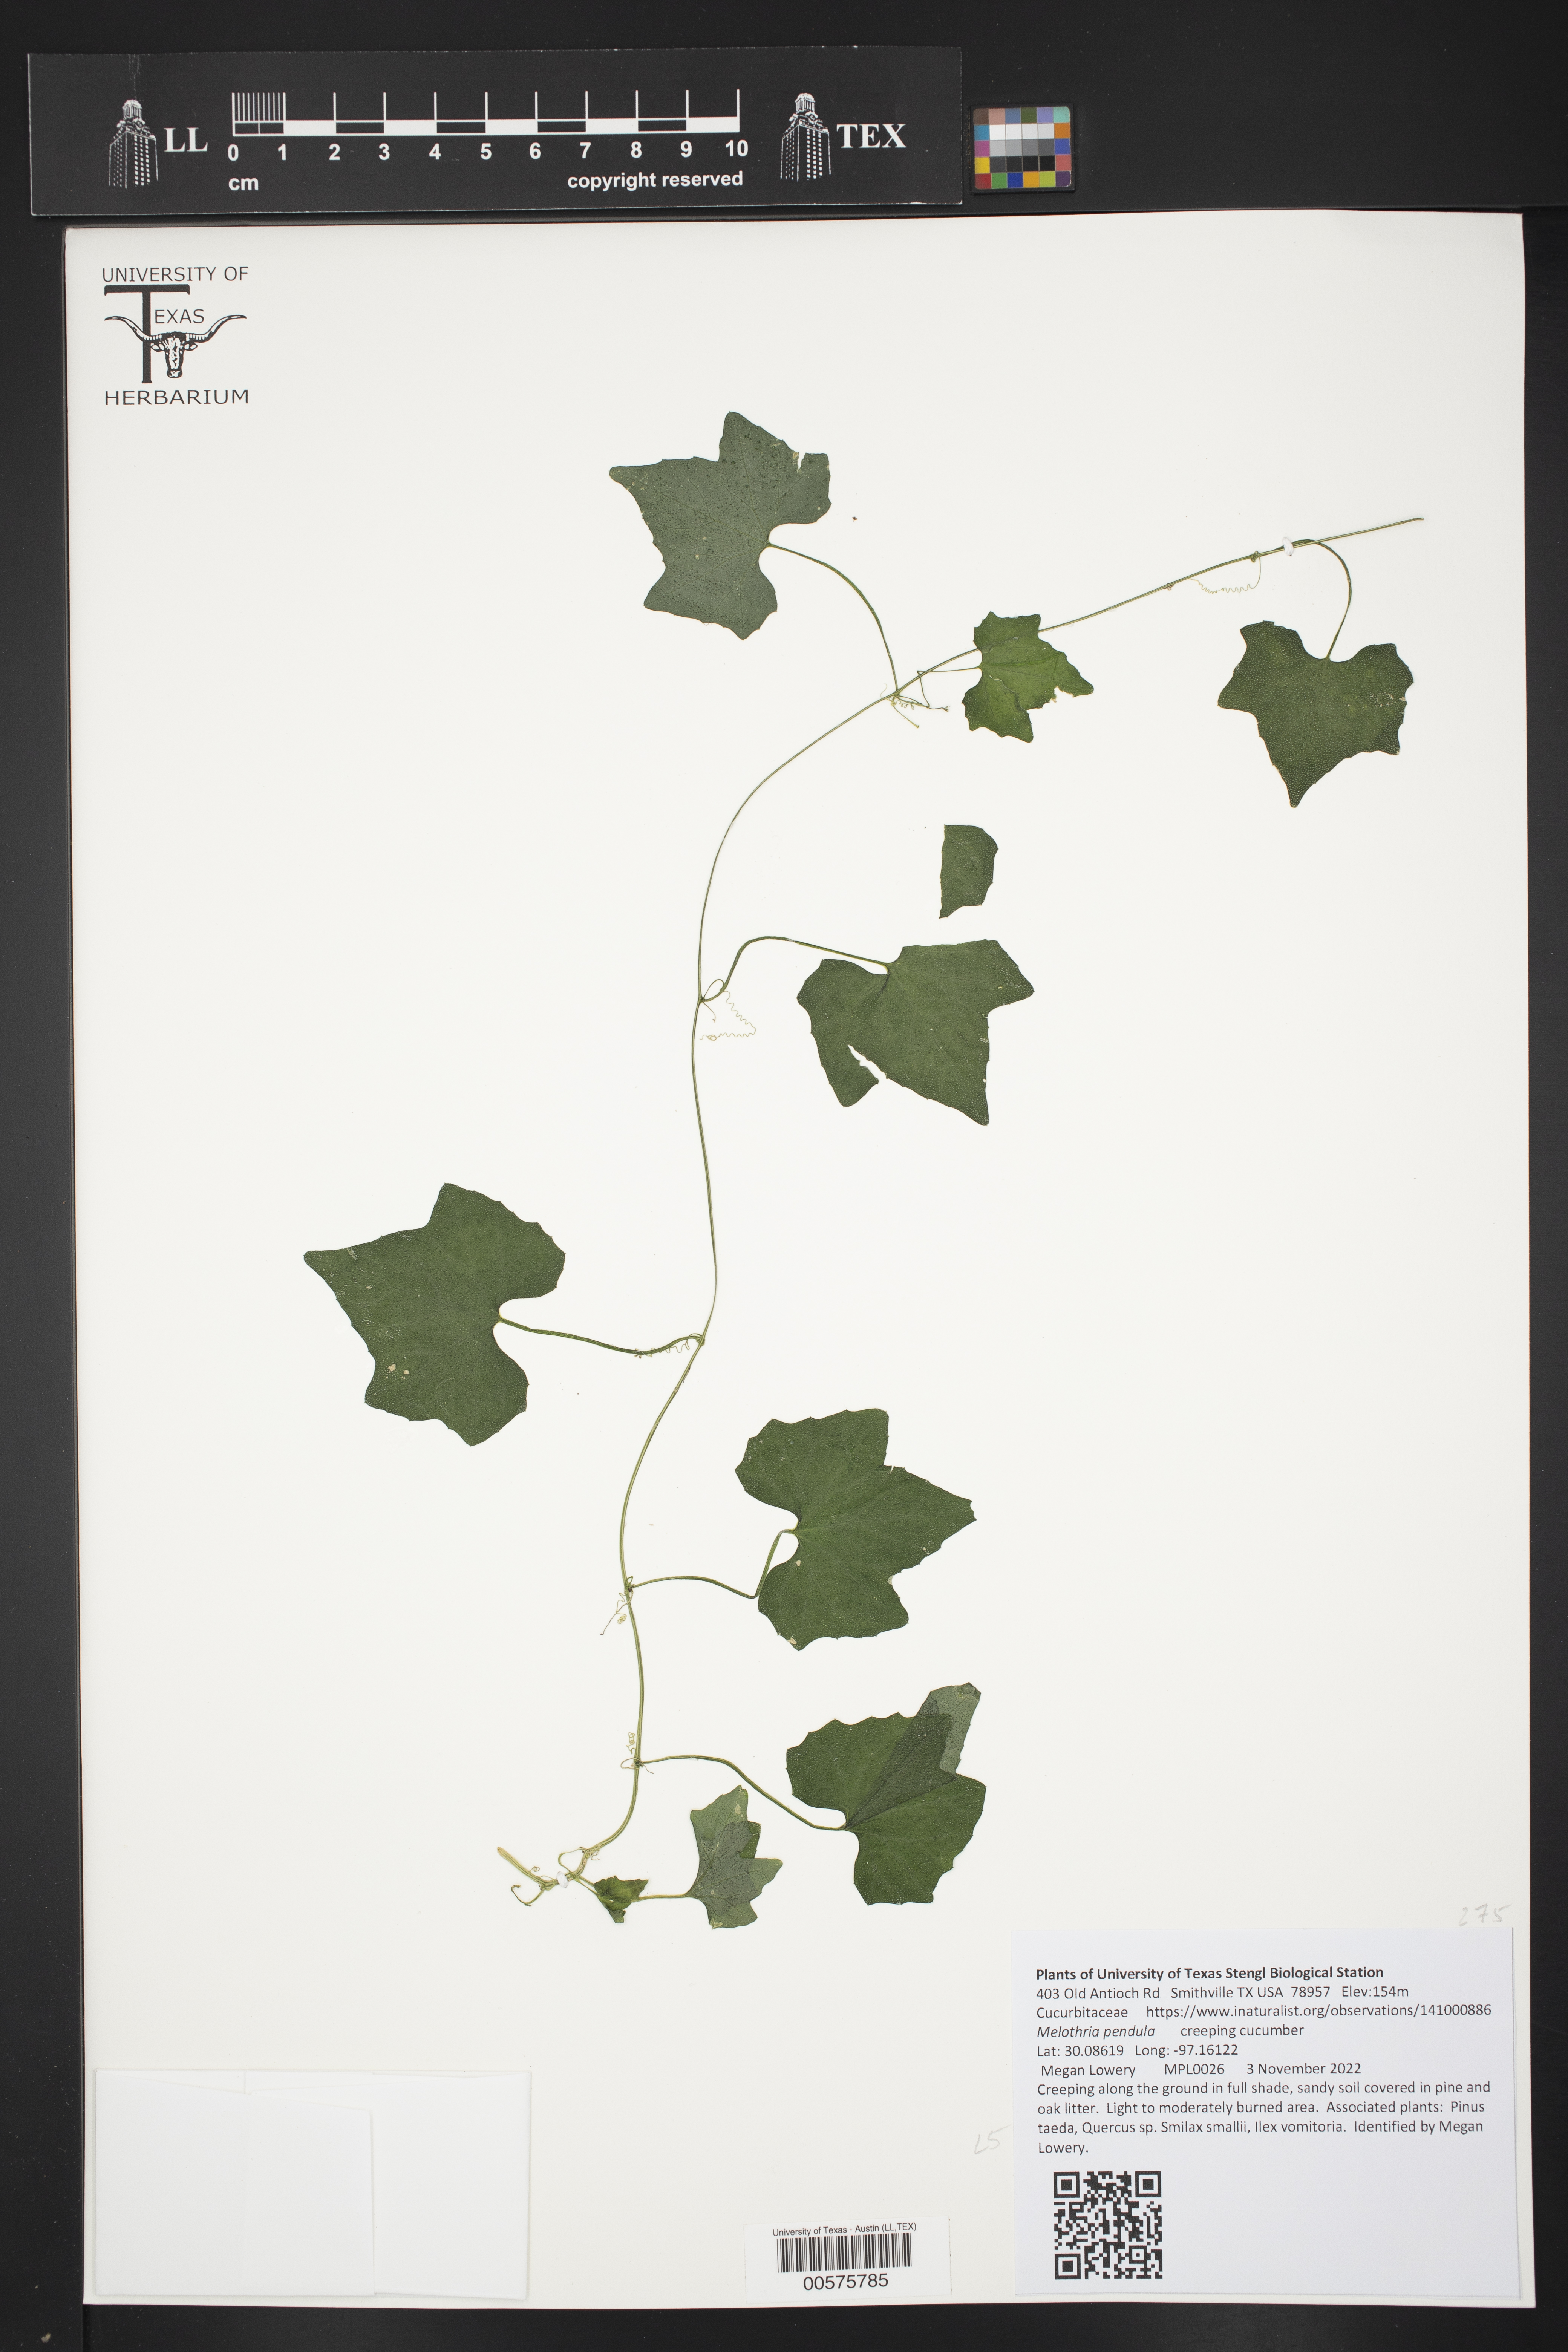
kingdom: Plantae
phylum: Tracheophyta
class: Magnoliopsida
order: Cucurbitales
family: Cucurbitaceae
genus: Melothria
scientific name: Melothria pendula
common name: Creeping-cucumber
